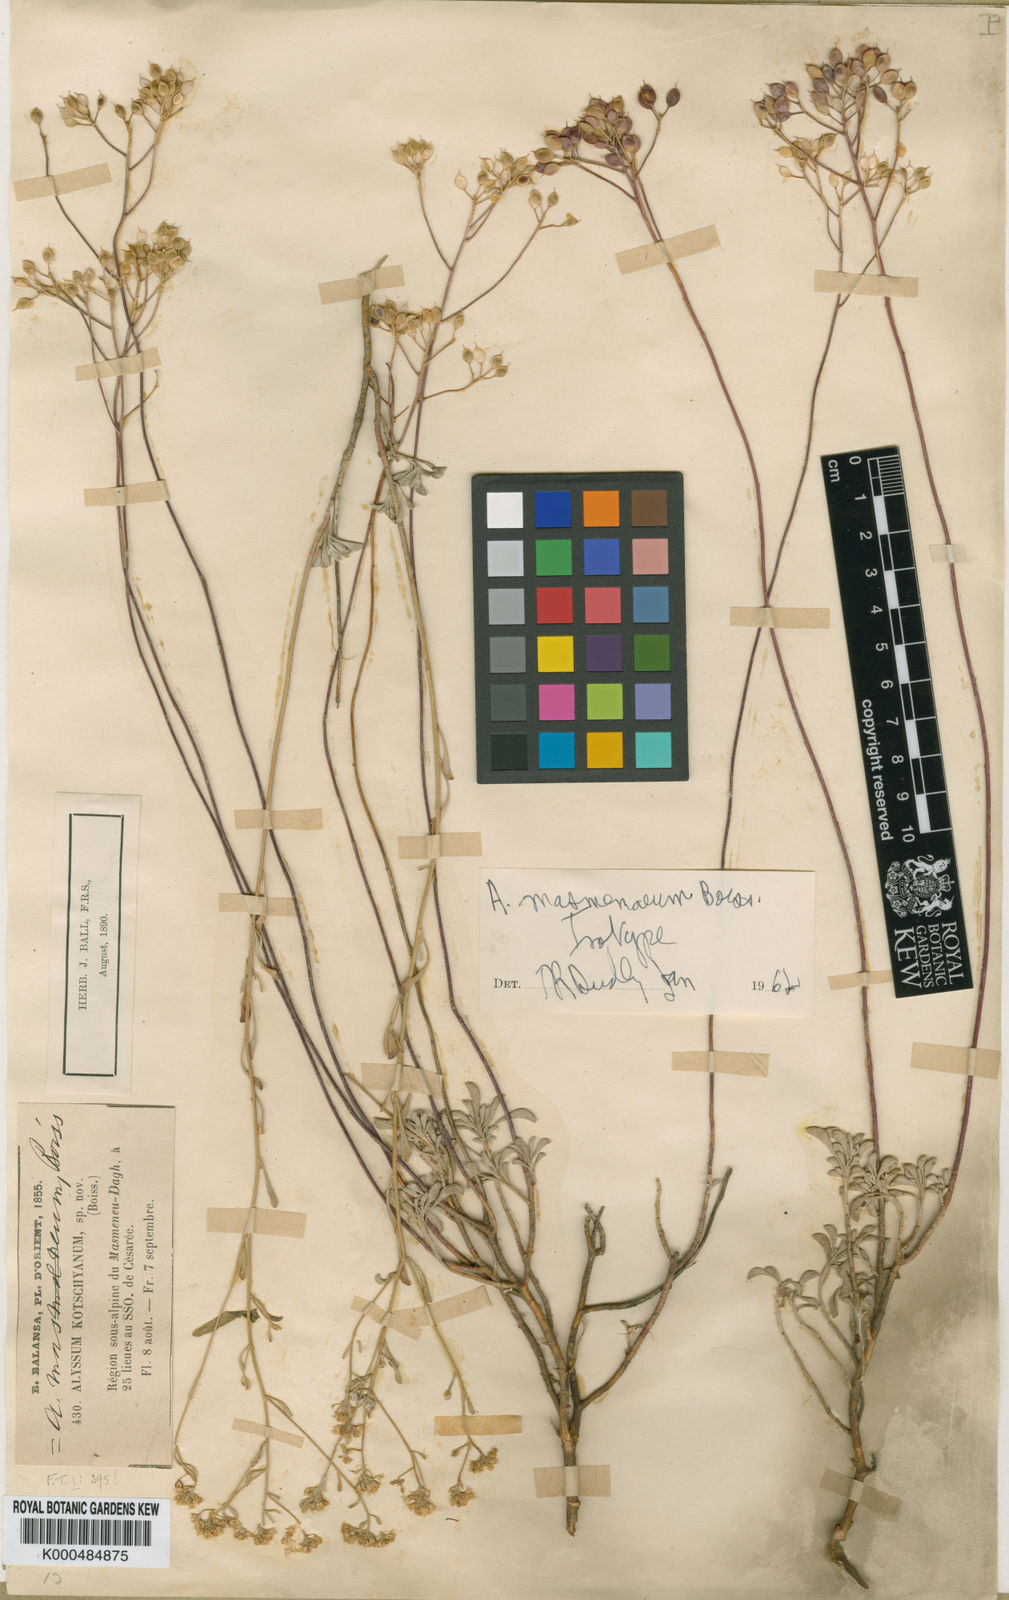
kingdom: Plantae
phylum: Tracheophyta
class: Magnoliopsida
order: Brassicales
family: Brassicaceae
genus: Odontarrhena
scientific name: Odontarrhena muralis
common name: Rock alyssum
